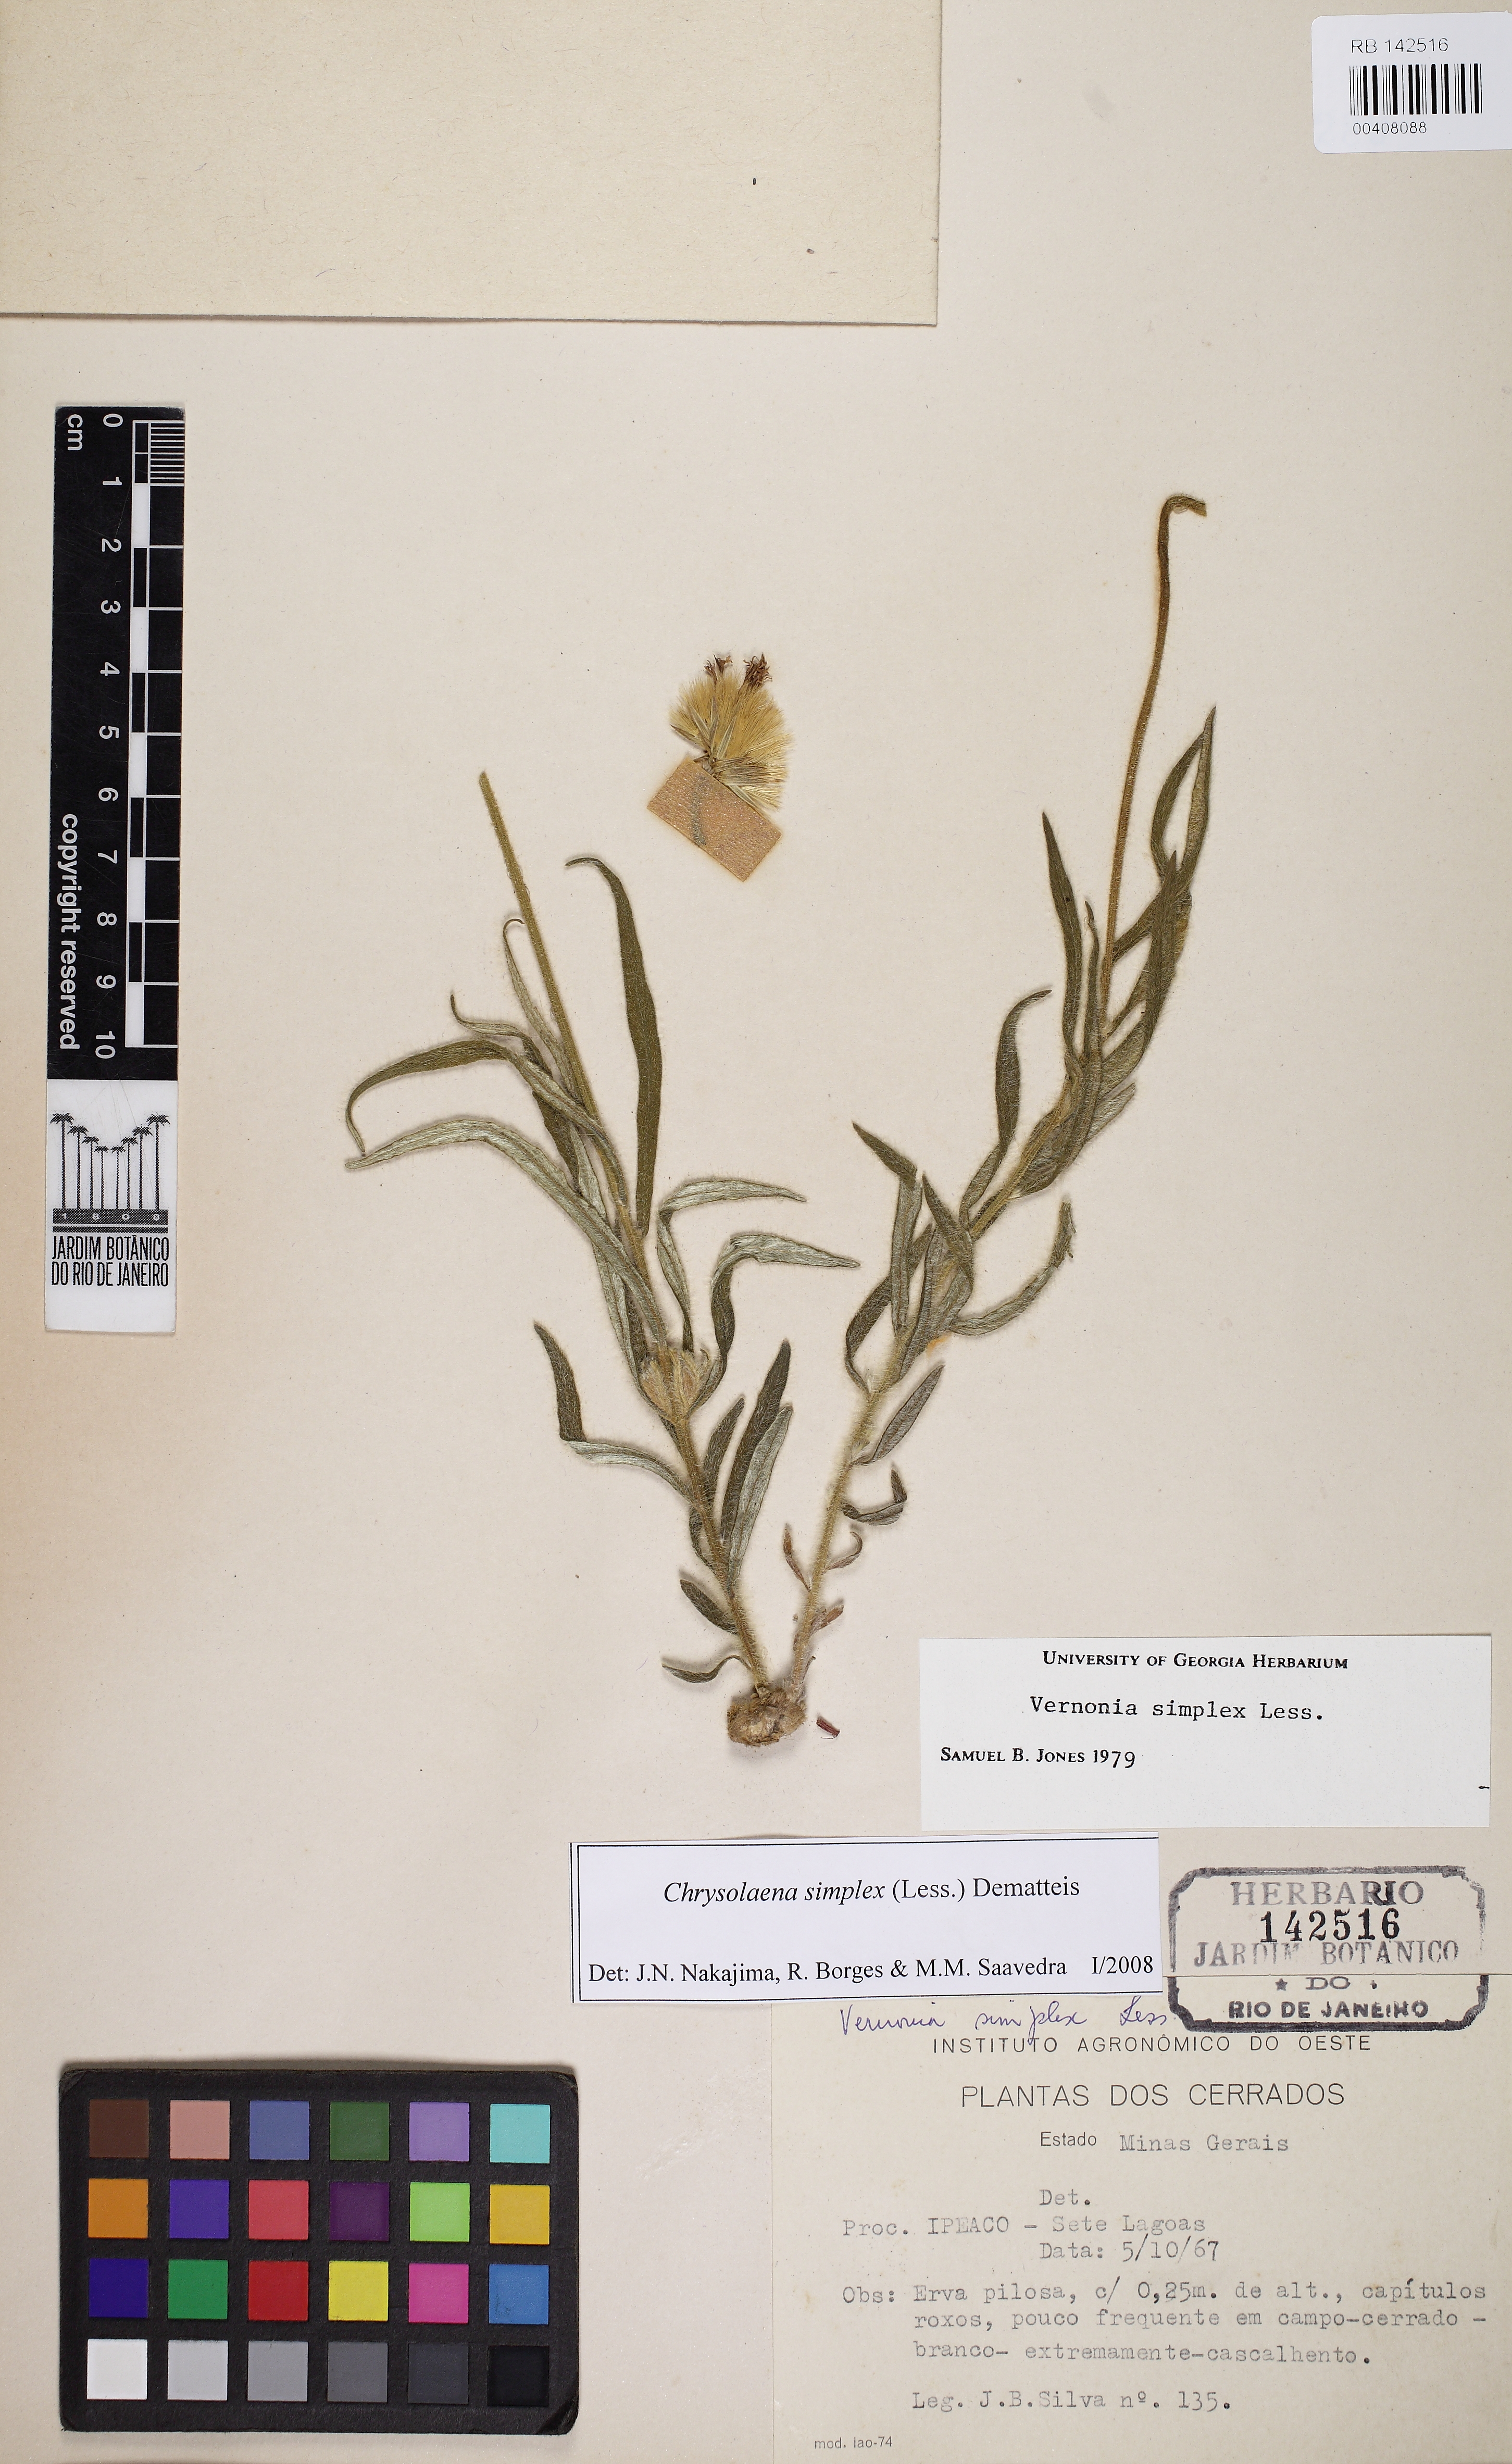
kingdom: Plantae
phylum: Tracheophyta
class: Magnoliopsida
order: Asterales
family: Asteraceae
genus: Chrysolaena
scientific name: Chrysolaena simplex
